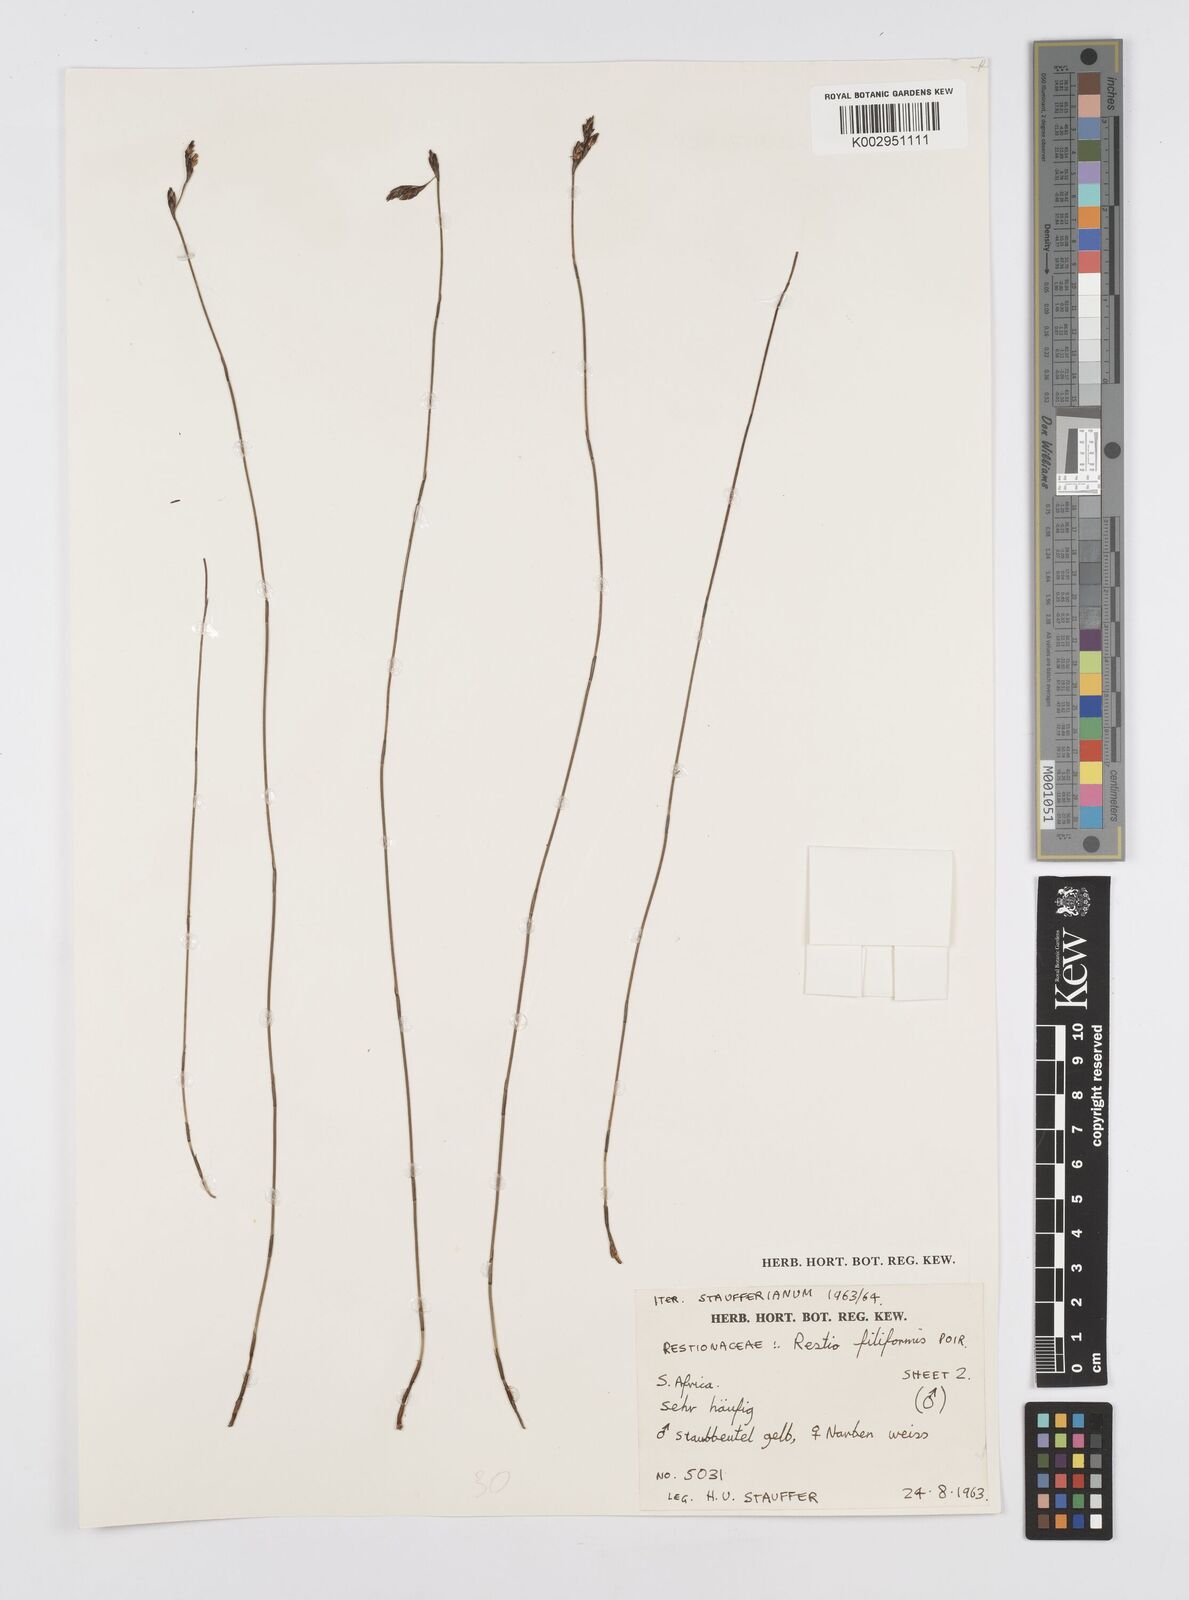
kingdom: Plantae
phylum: Tracheophyta
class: Liliopsida
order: Poales
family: Restionaceae
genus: Restio
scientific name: Restio filiformis
